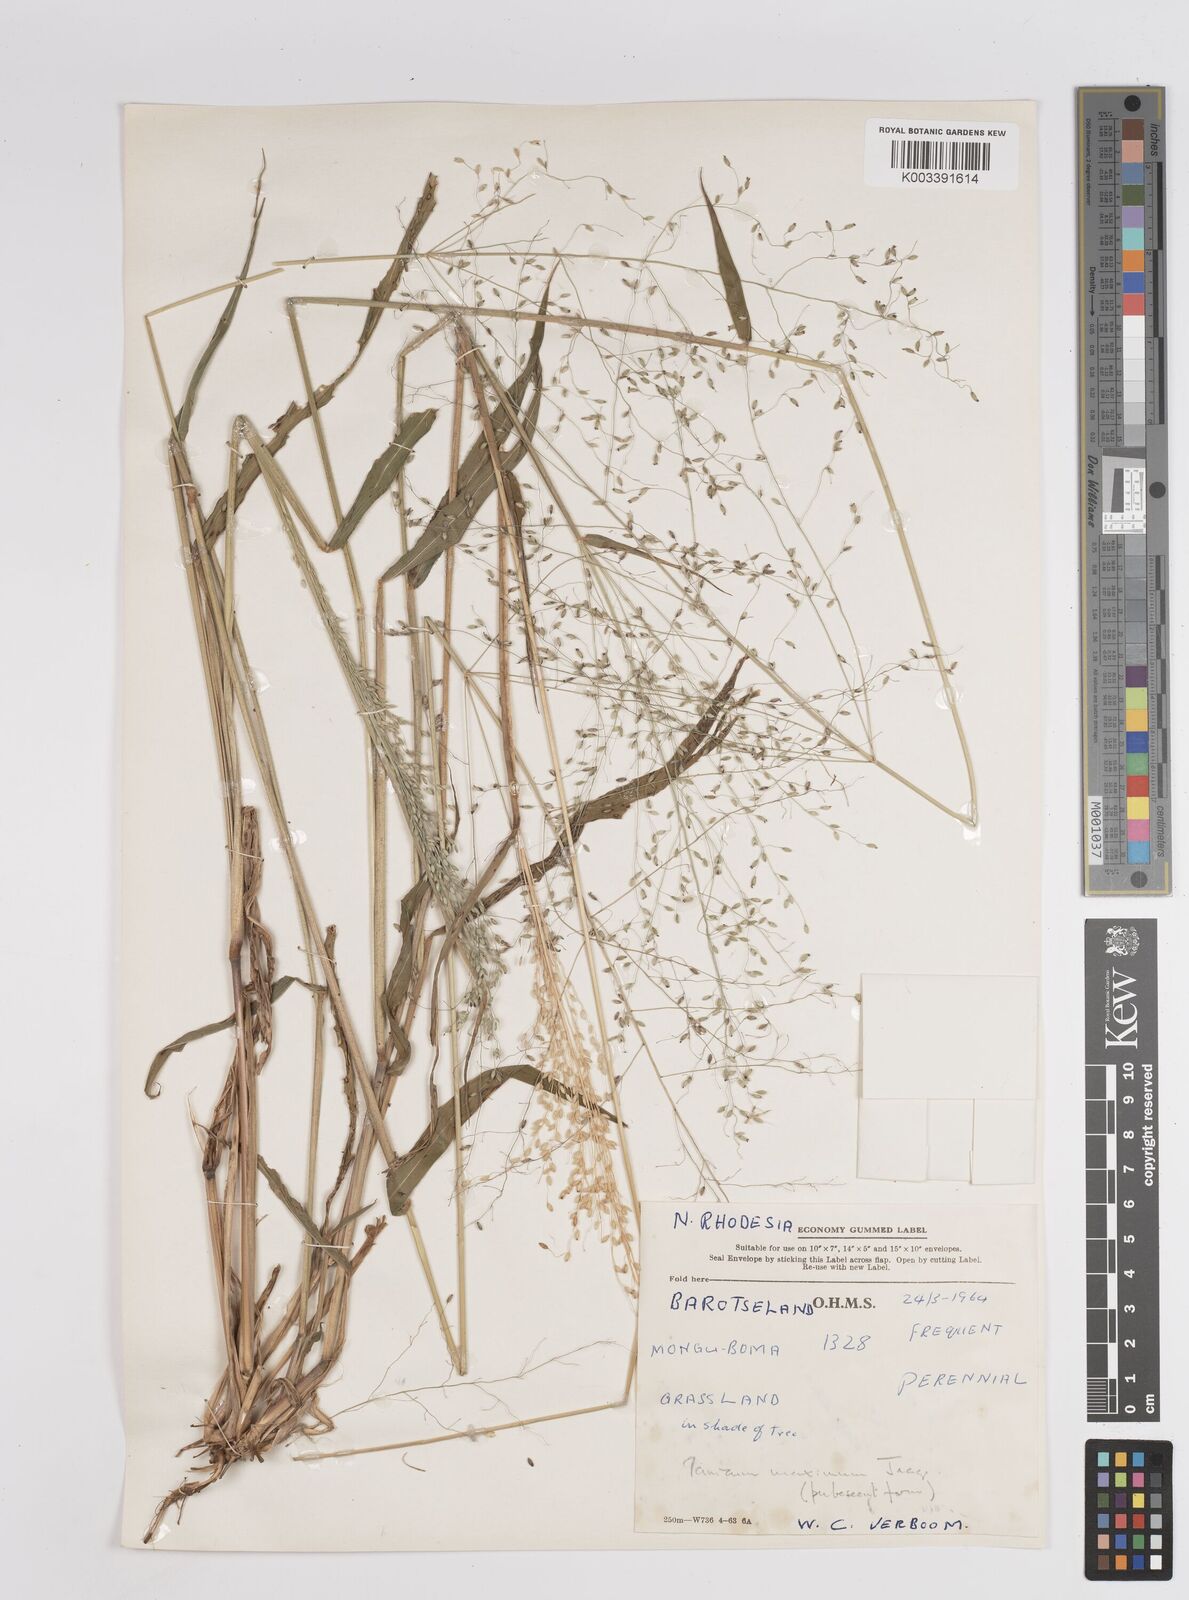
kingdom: Plantae
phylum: Tracheophyta
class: Liliopsida
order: Poales
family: Poaceae
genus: Megathyrsus
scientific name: Megathyrsus maximus
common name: Guineagrass
